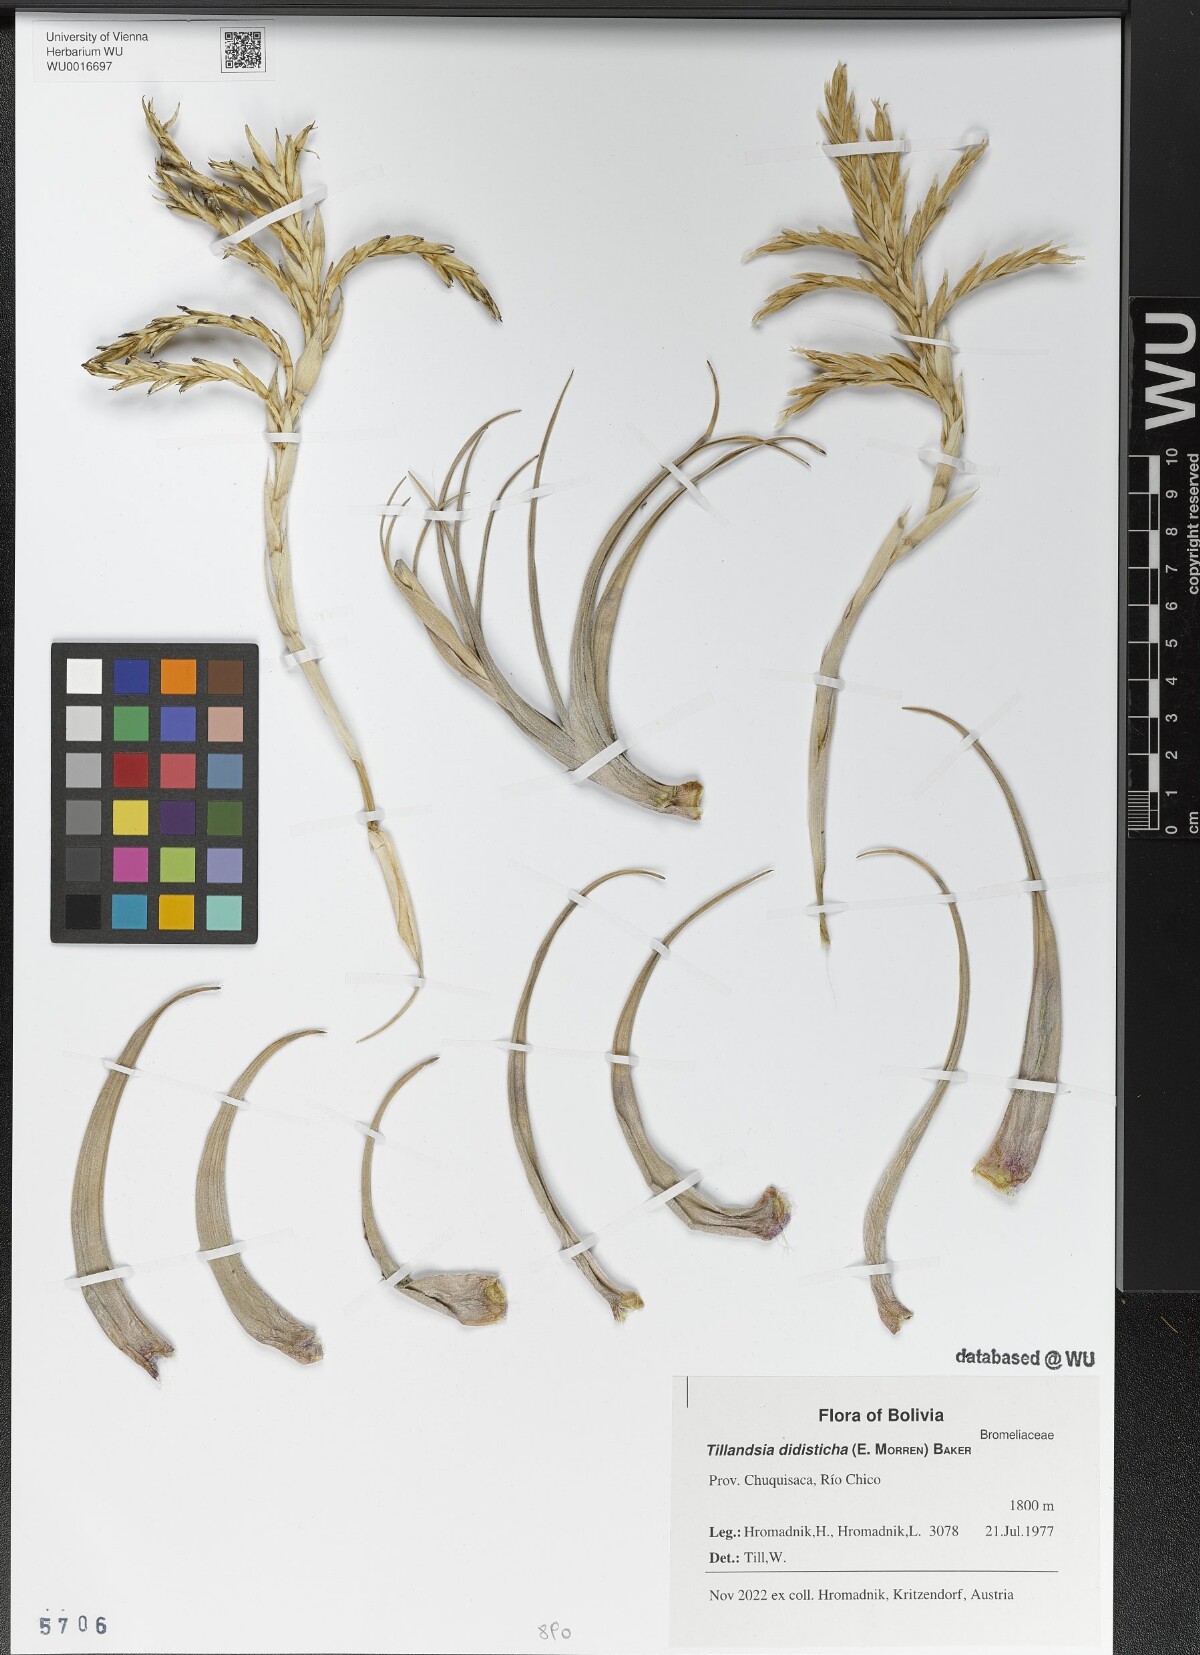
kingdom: Plantae
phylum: Tracheophyta
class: Liliopsida
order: Poales
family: Bromeliaceae
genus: Tillandsia
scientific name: Tillandsia didisticha
